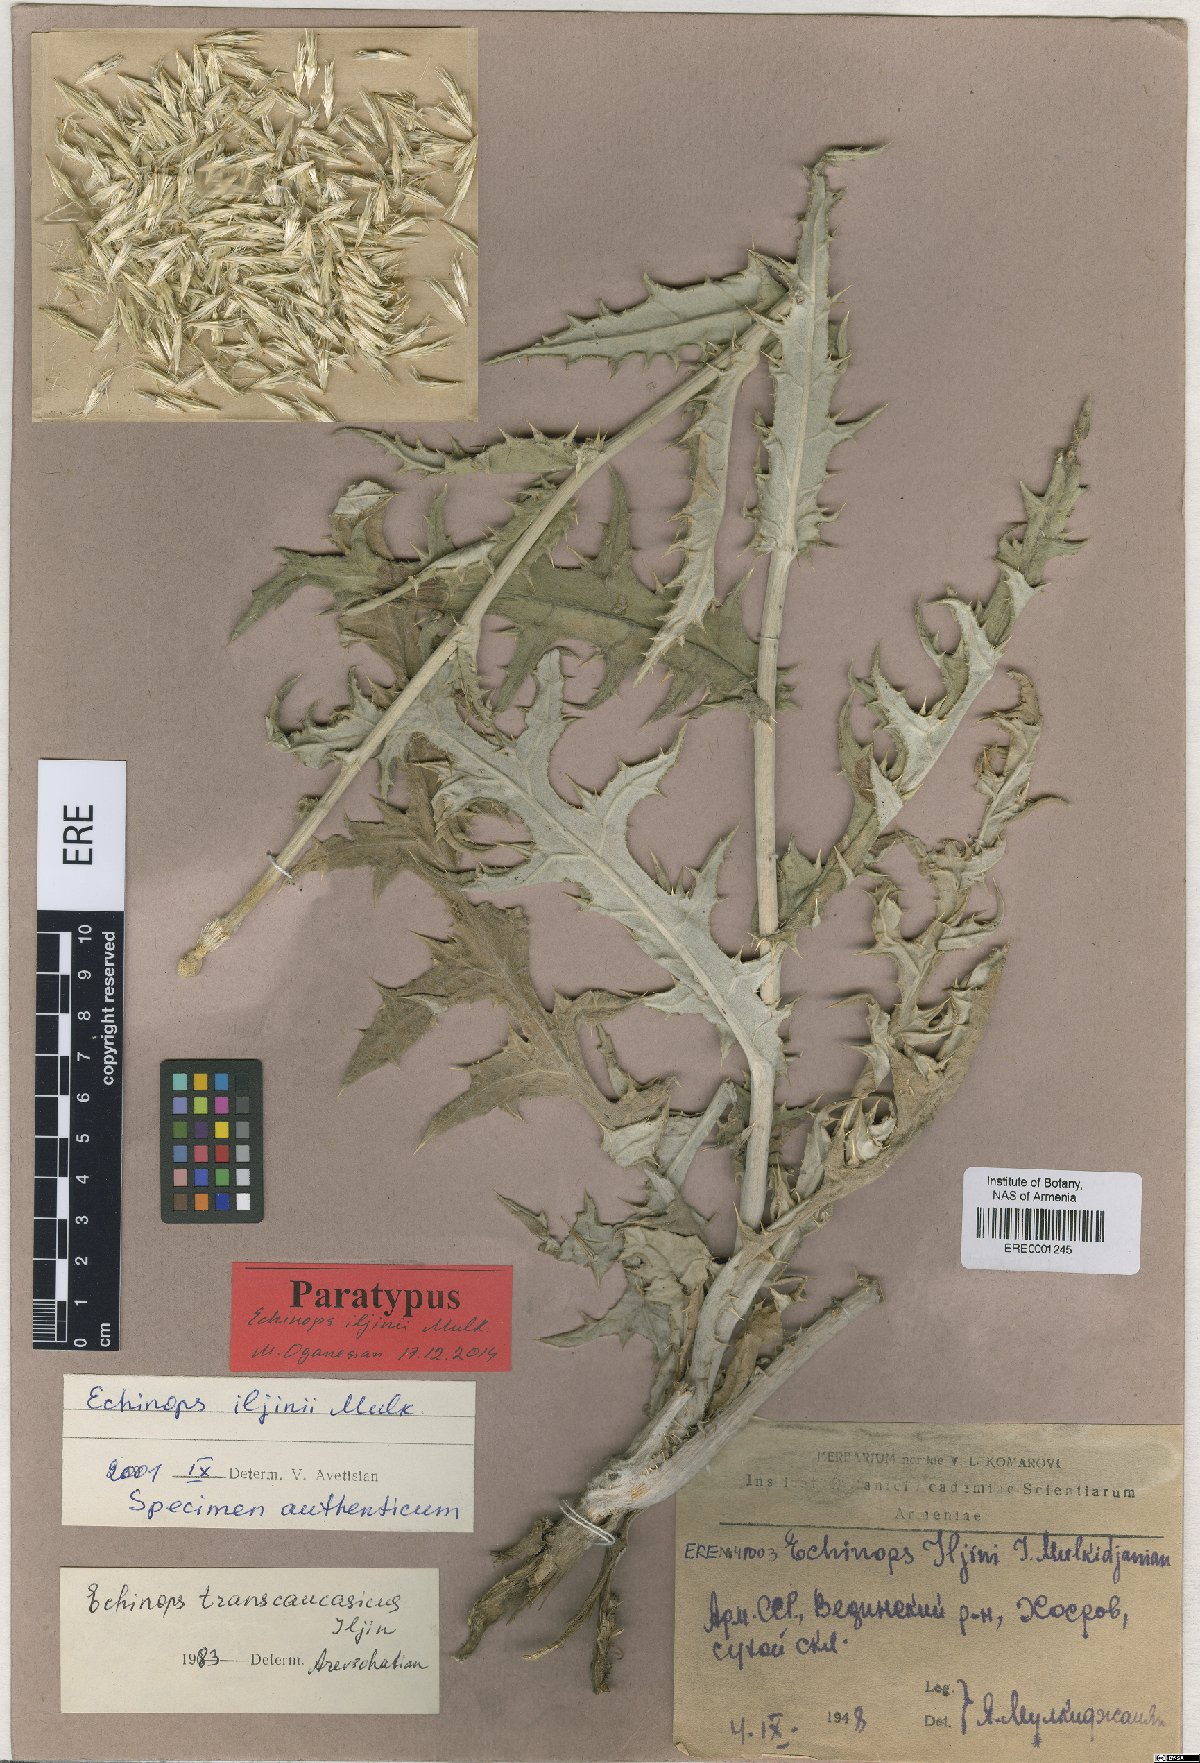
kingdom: Plantae
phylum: Tracheophyta
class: Magnoliopsida
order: Asterales
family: Asteraceae
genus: Echinops
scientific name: Echinops transcaucasicus
